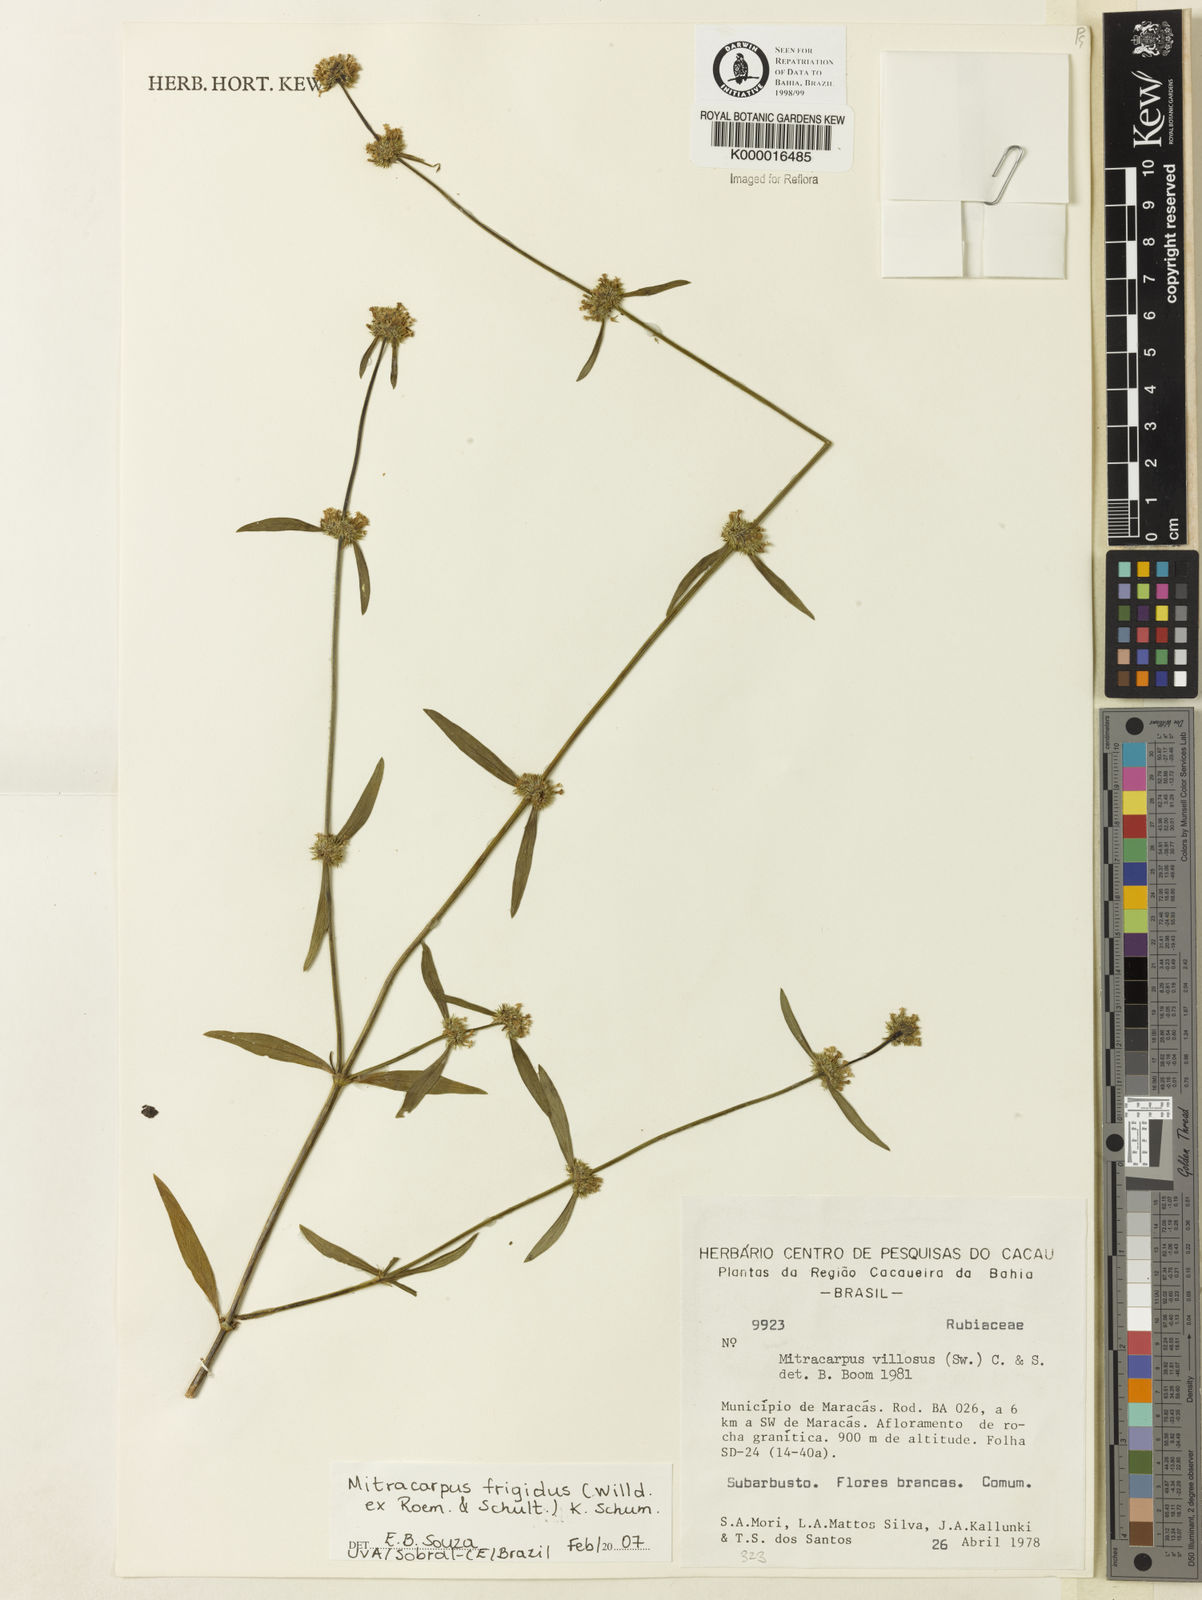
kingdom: Plantae
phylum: Tracheophyta
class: Magnoliopsida
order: Gentianales
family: Rubiaceae
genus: Mitracarpus
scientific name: Mitracarpus frigidus
